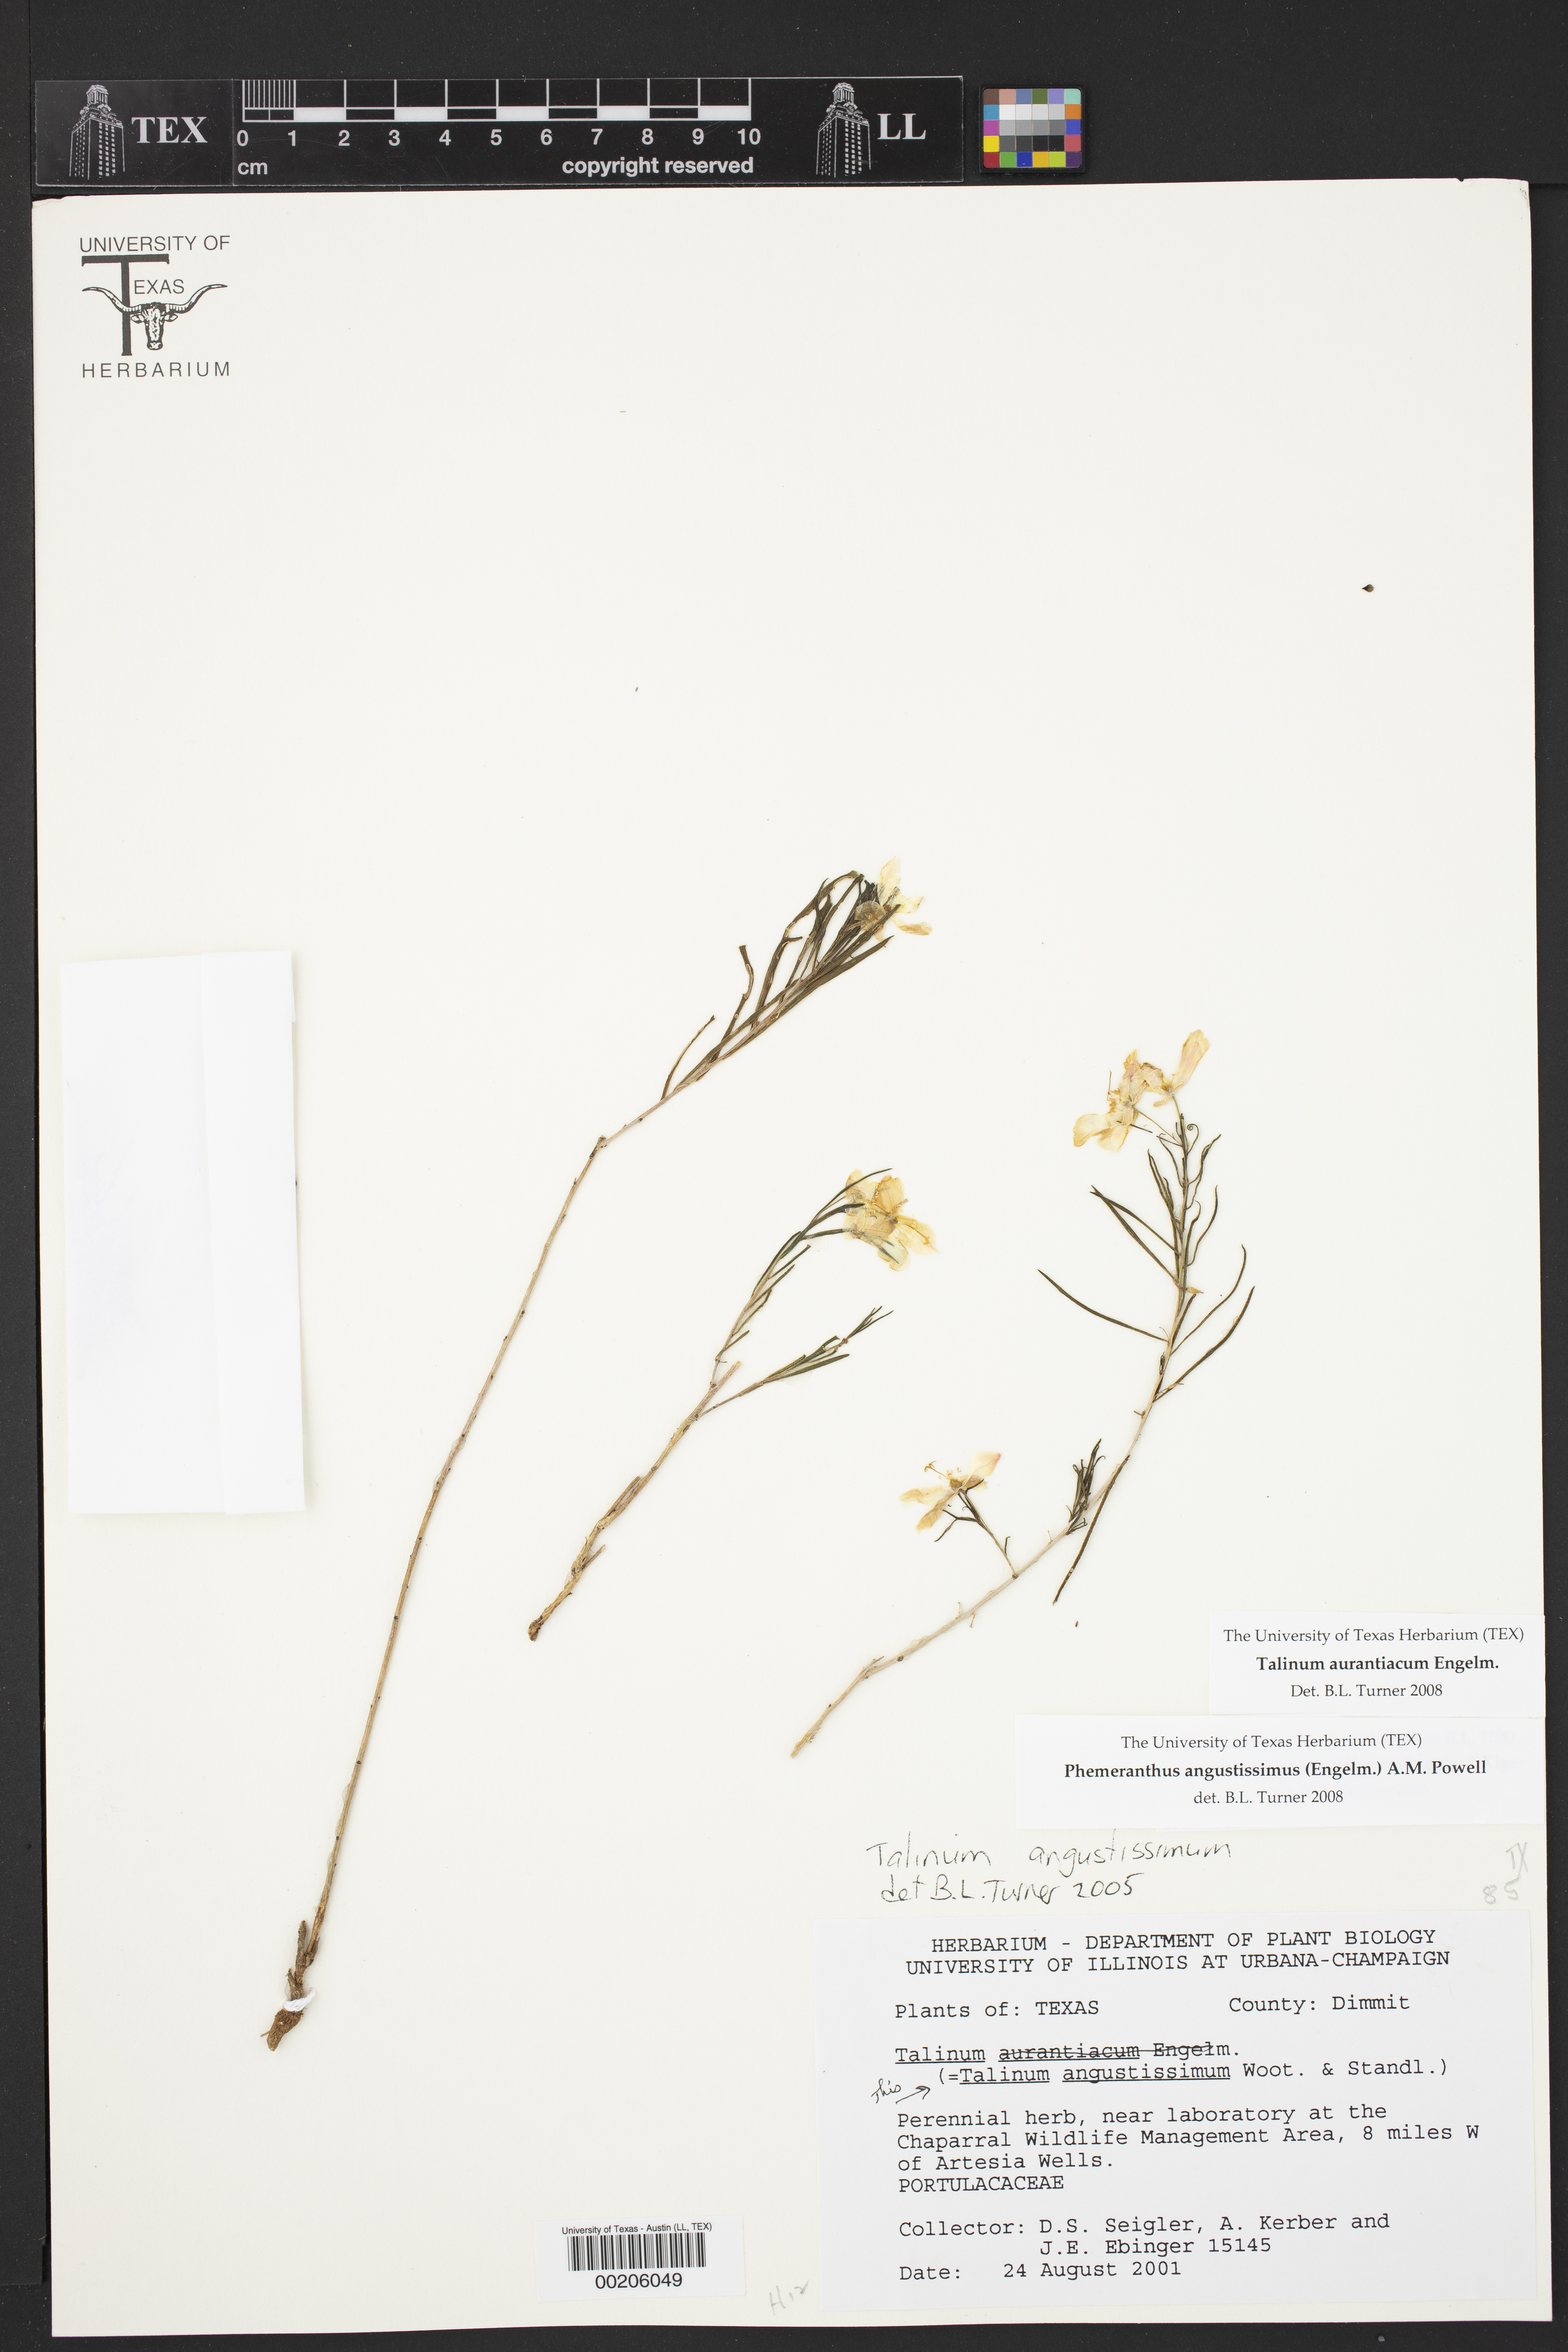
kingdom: Plantae
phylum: Tracheophyta
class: Magnoliopsida
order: Caryophyllales
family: Montiaceae
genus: Phemeranthus
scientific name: Phemeranthus aurantiacus
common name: Orange fameflower
